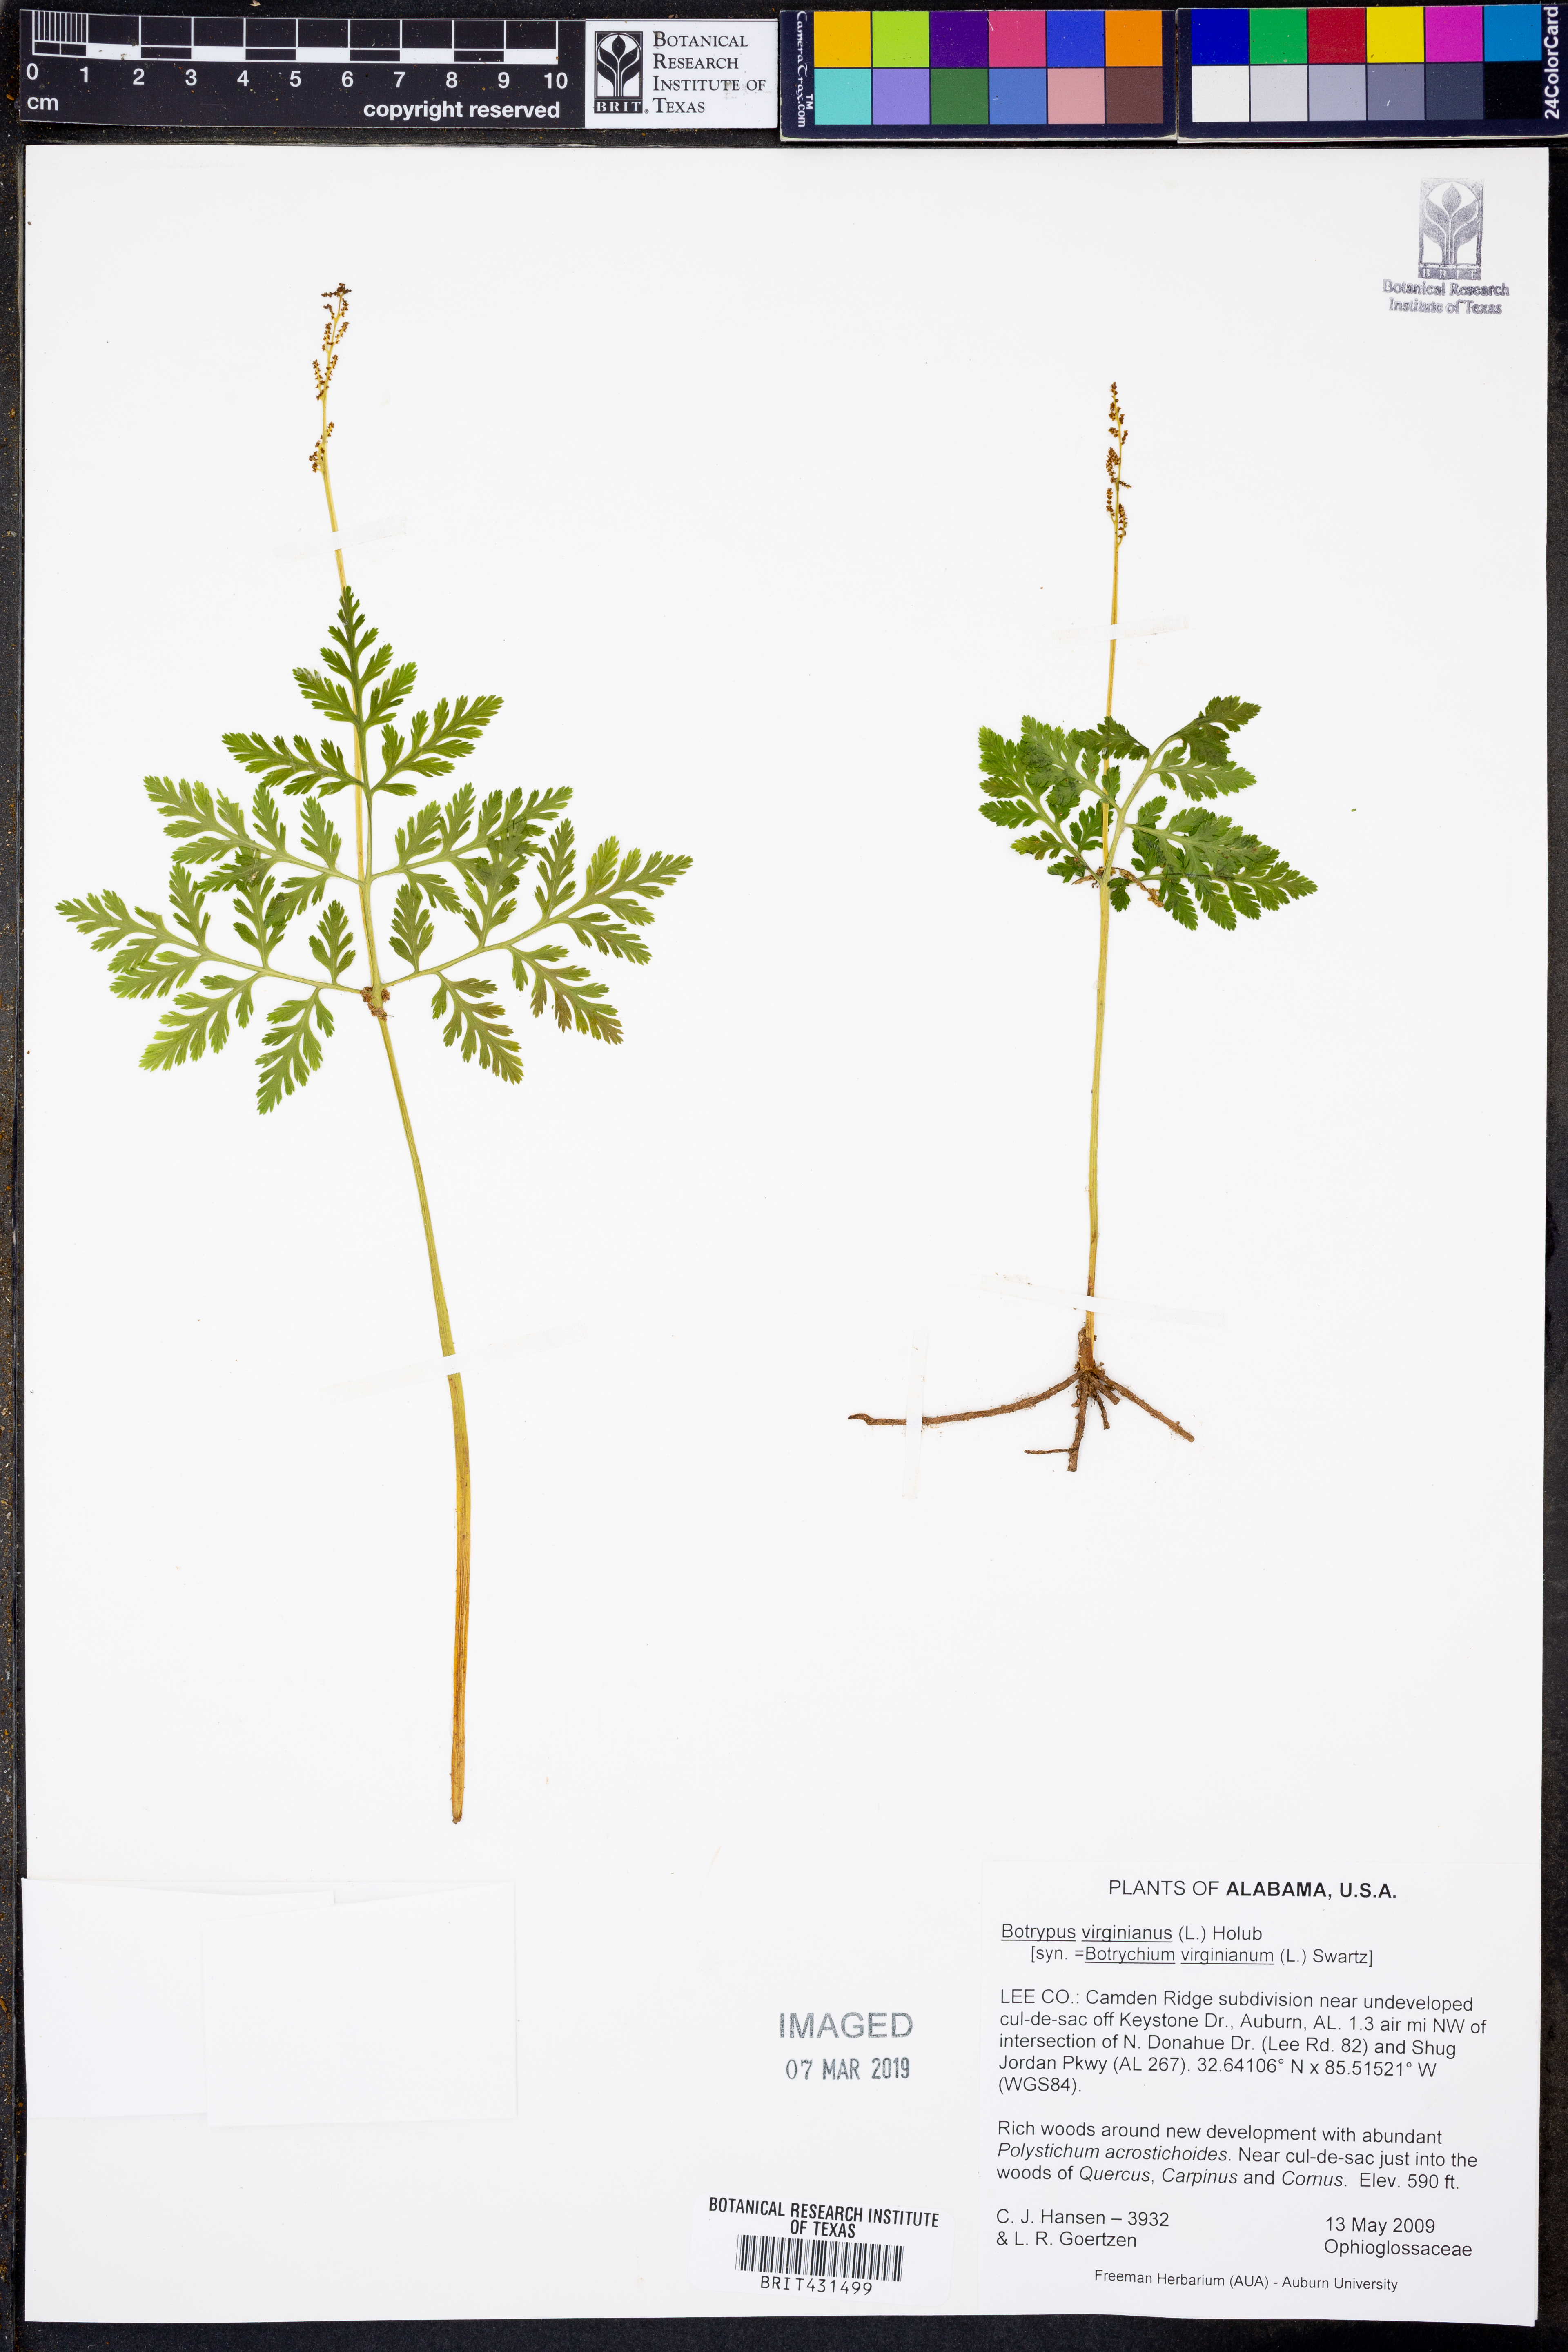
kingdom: Plantae
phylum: Tracheophyta
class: Polypodiopsida
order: Ophioglossales
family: Ophioglossaceae
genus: Botrypus
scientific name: Botrypus virginianus
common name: Common grapefern
